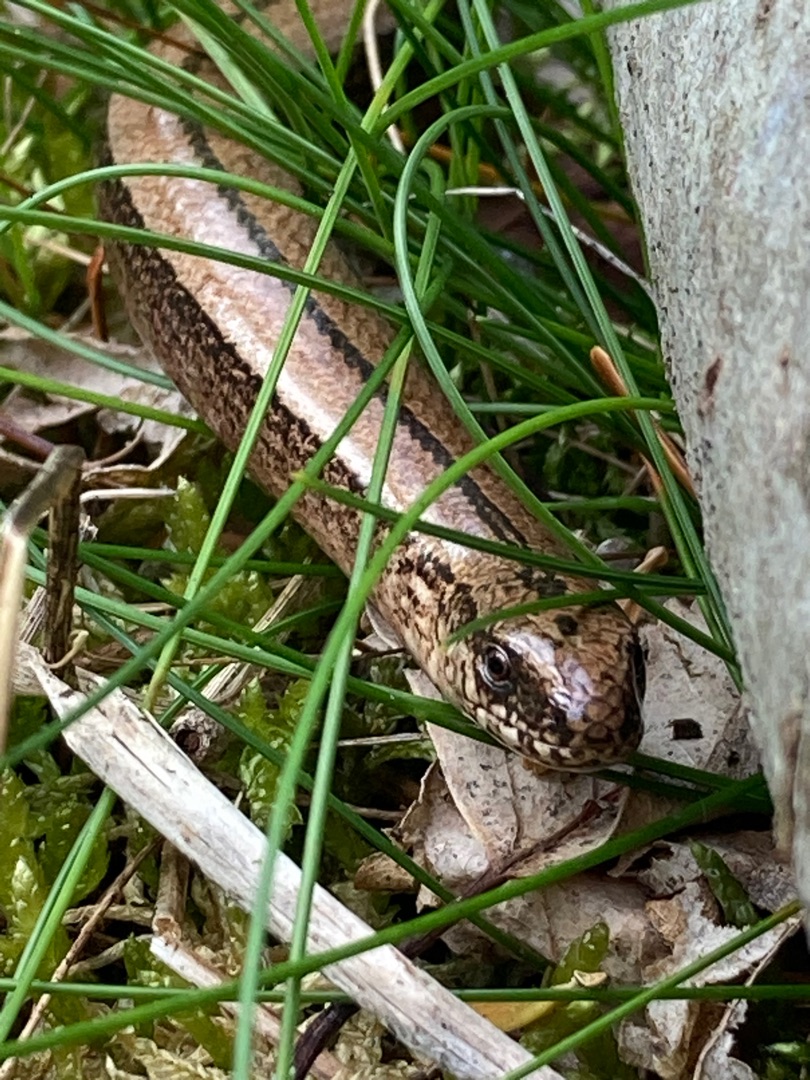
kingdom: Animalia
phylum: Chordata
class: Squamata
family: Anguidae
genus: Anguis
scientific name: Anguis fragilis
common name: Stålorm
